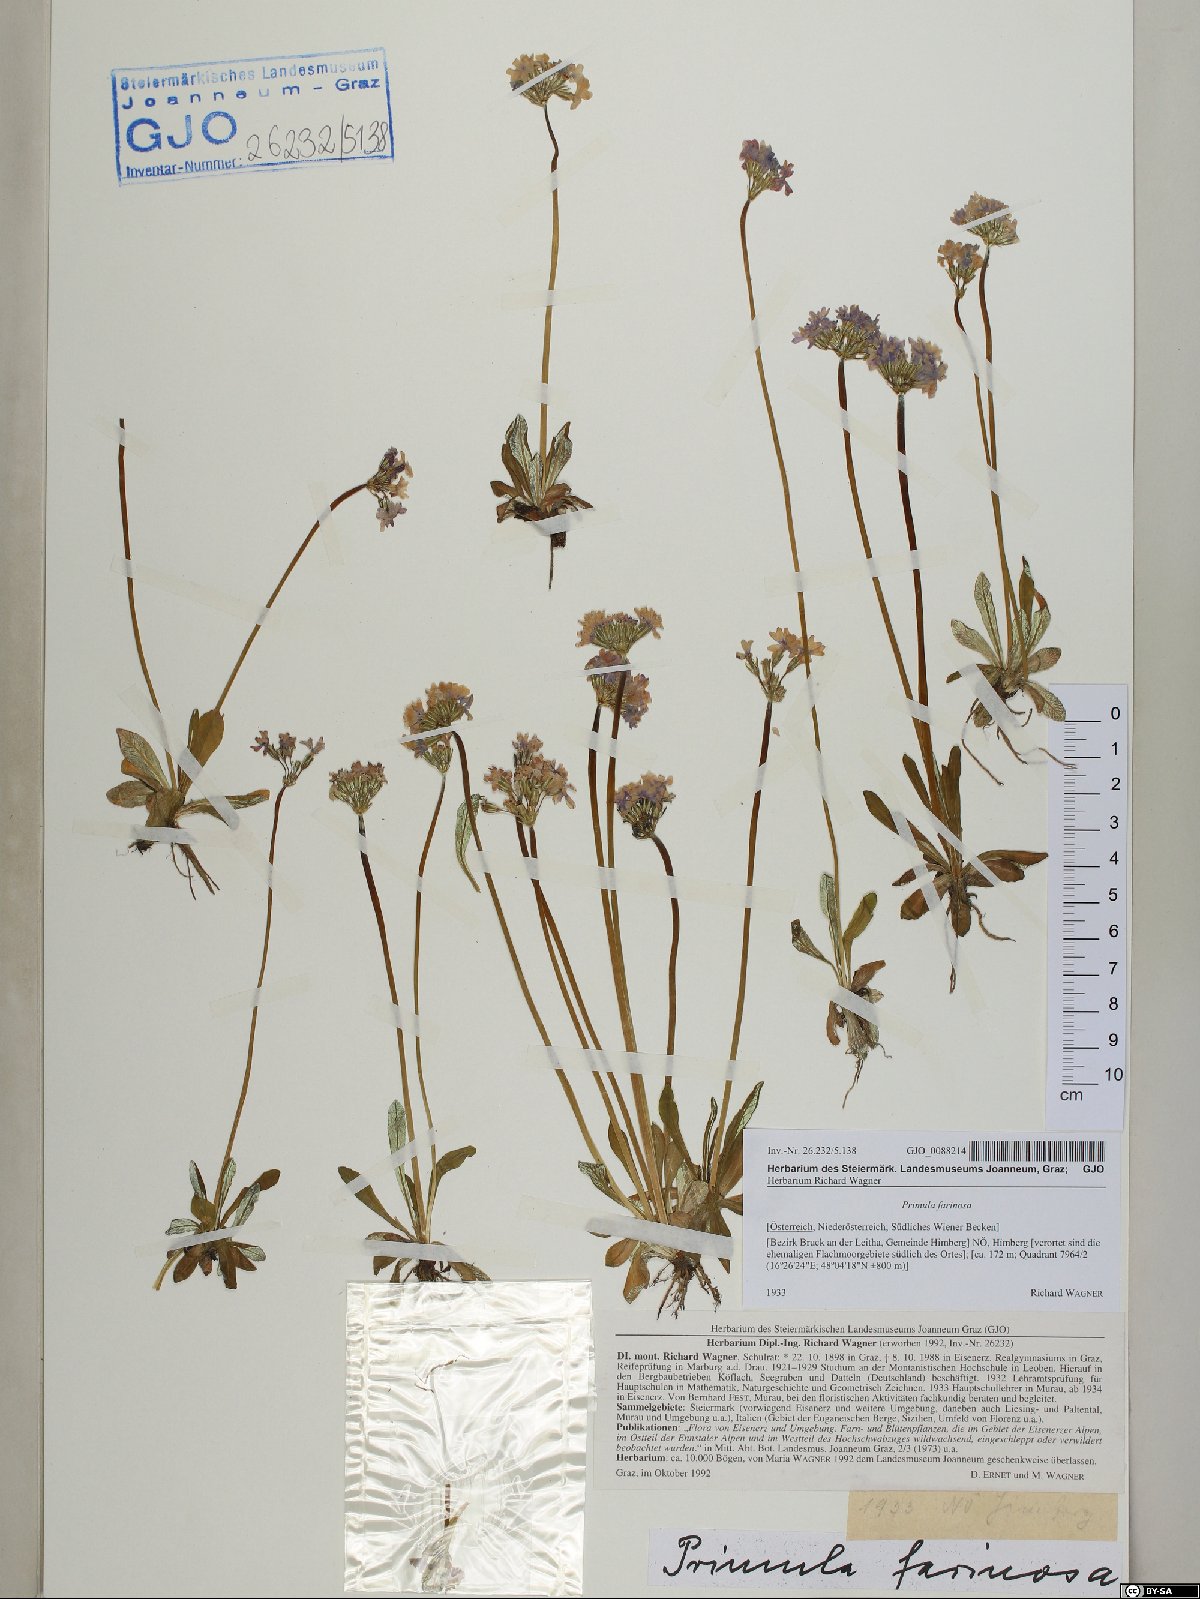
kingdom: Plantae
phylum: Tracheophyta
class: Magnoliopsida
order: Ericales
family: Primulaceae
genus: Primula
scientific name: Primula farinosa
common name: Bird's-eye primrose
